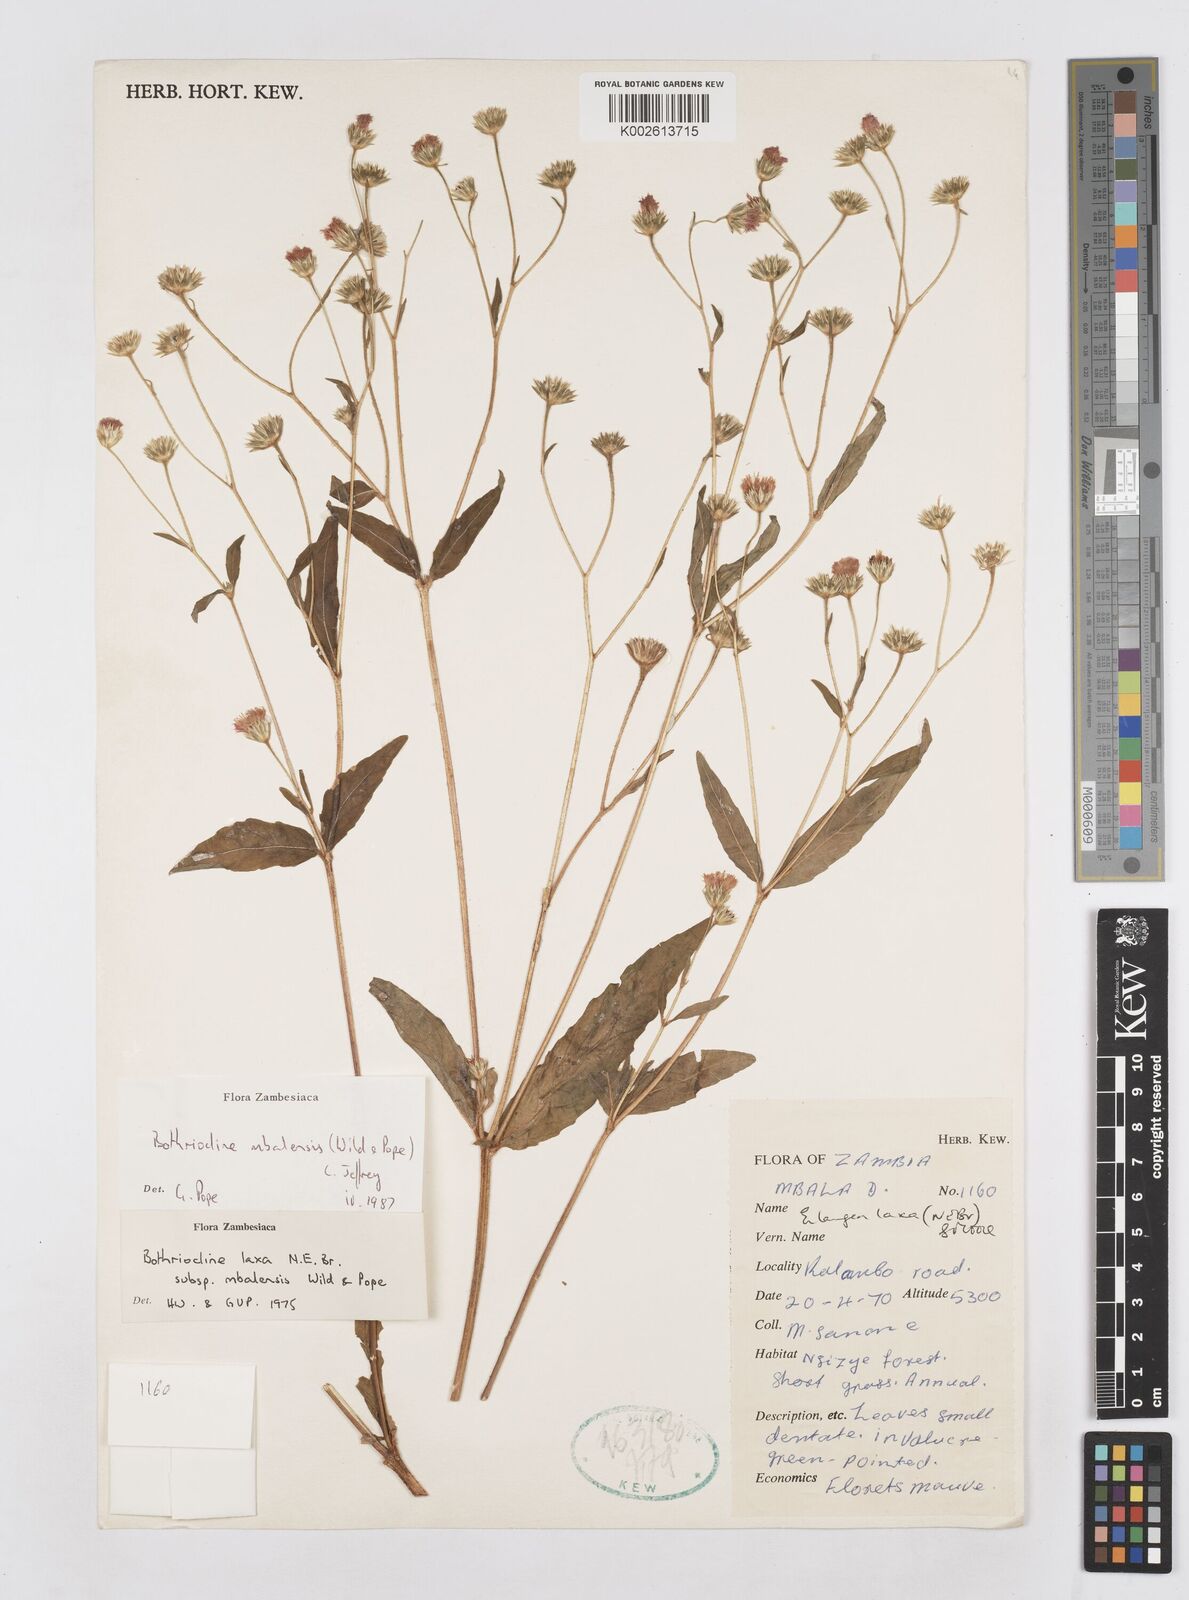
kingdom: Plantae
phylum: Tracheophyta
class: Magnoliopsida
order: Asterales
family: Asteraceae
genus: Bothriocline
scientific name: Bothriocline mbalensis
